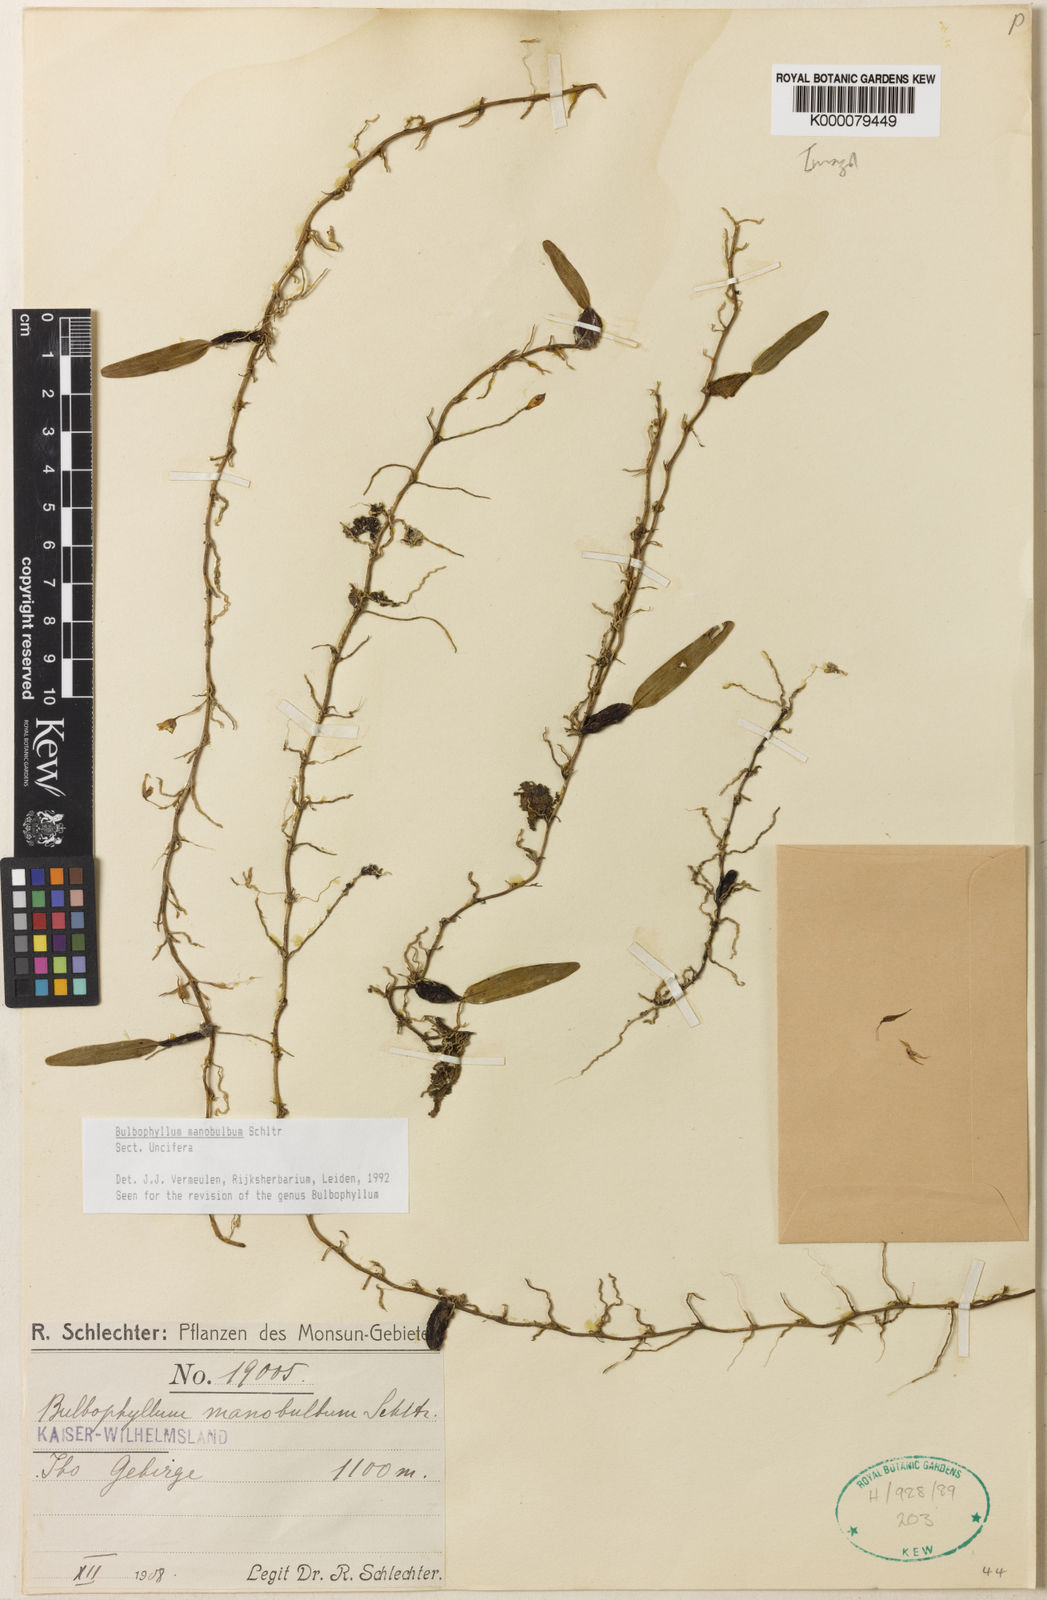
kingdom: Plantae
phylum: Tracheophyta
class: Liliopsida
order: Asparagales
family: Orchidaceae
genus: Bulbophyllum
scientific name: Bulbophyllum
